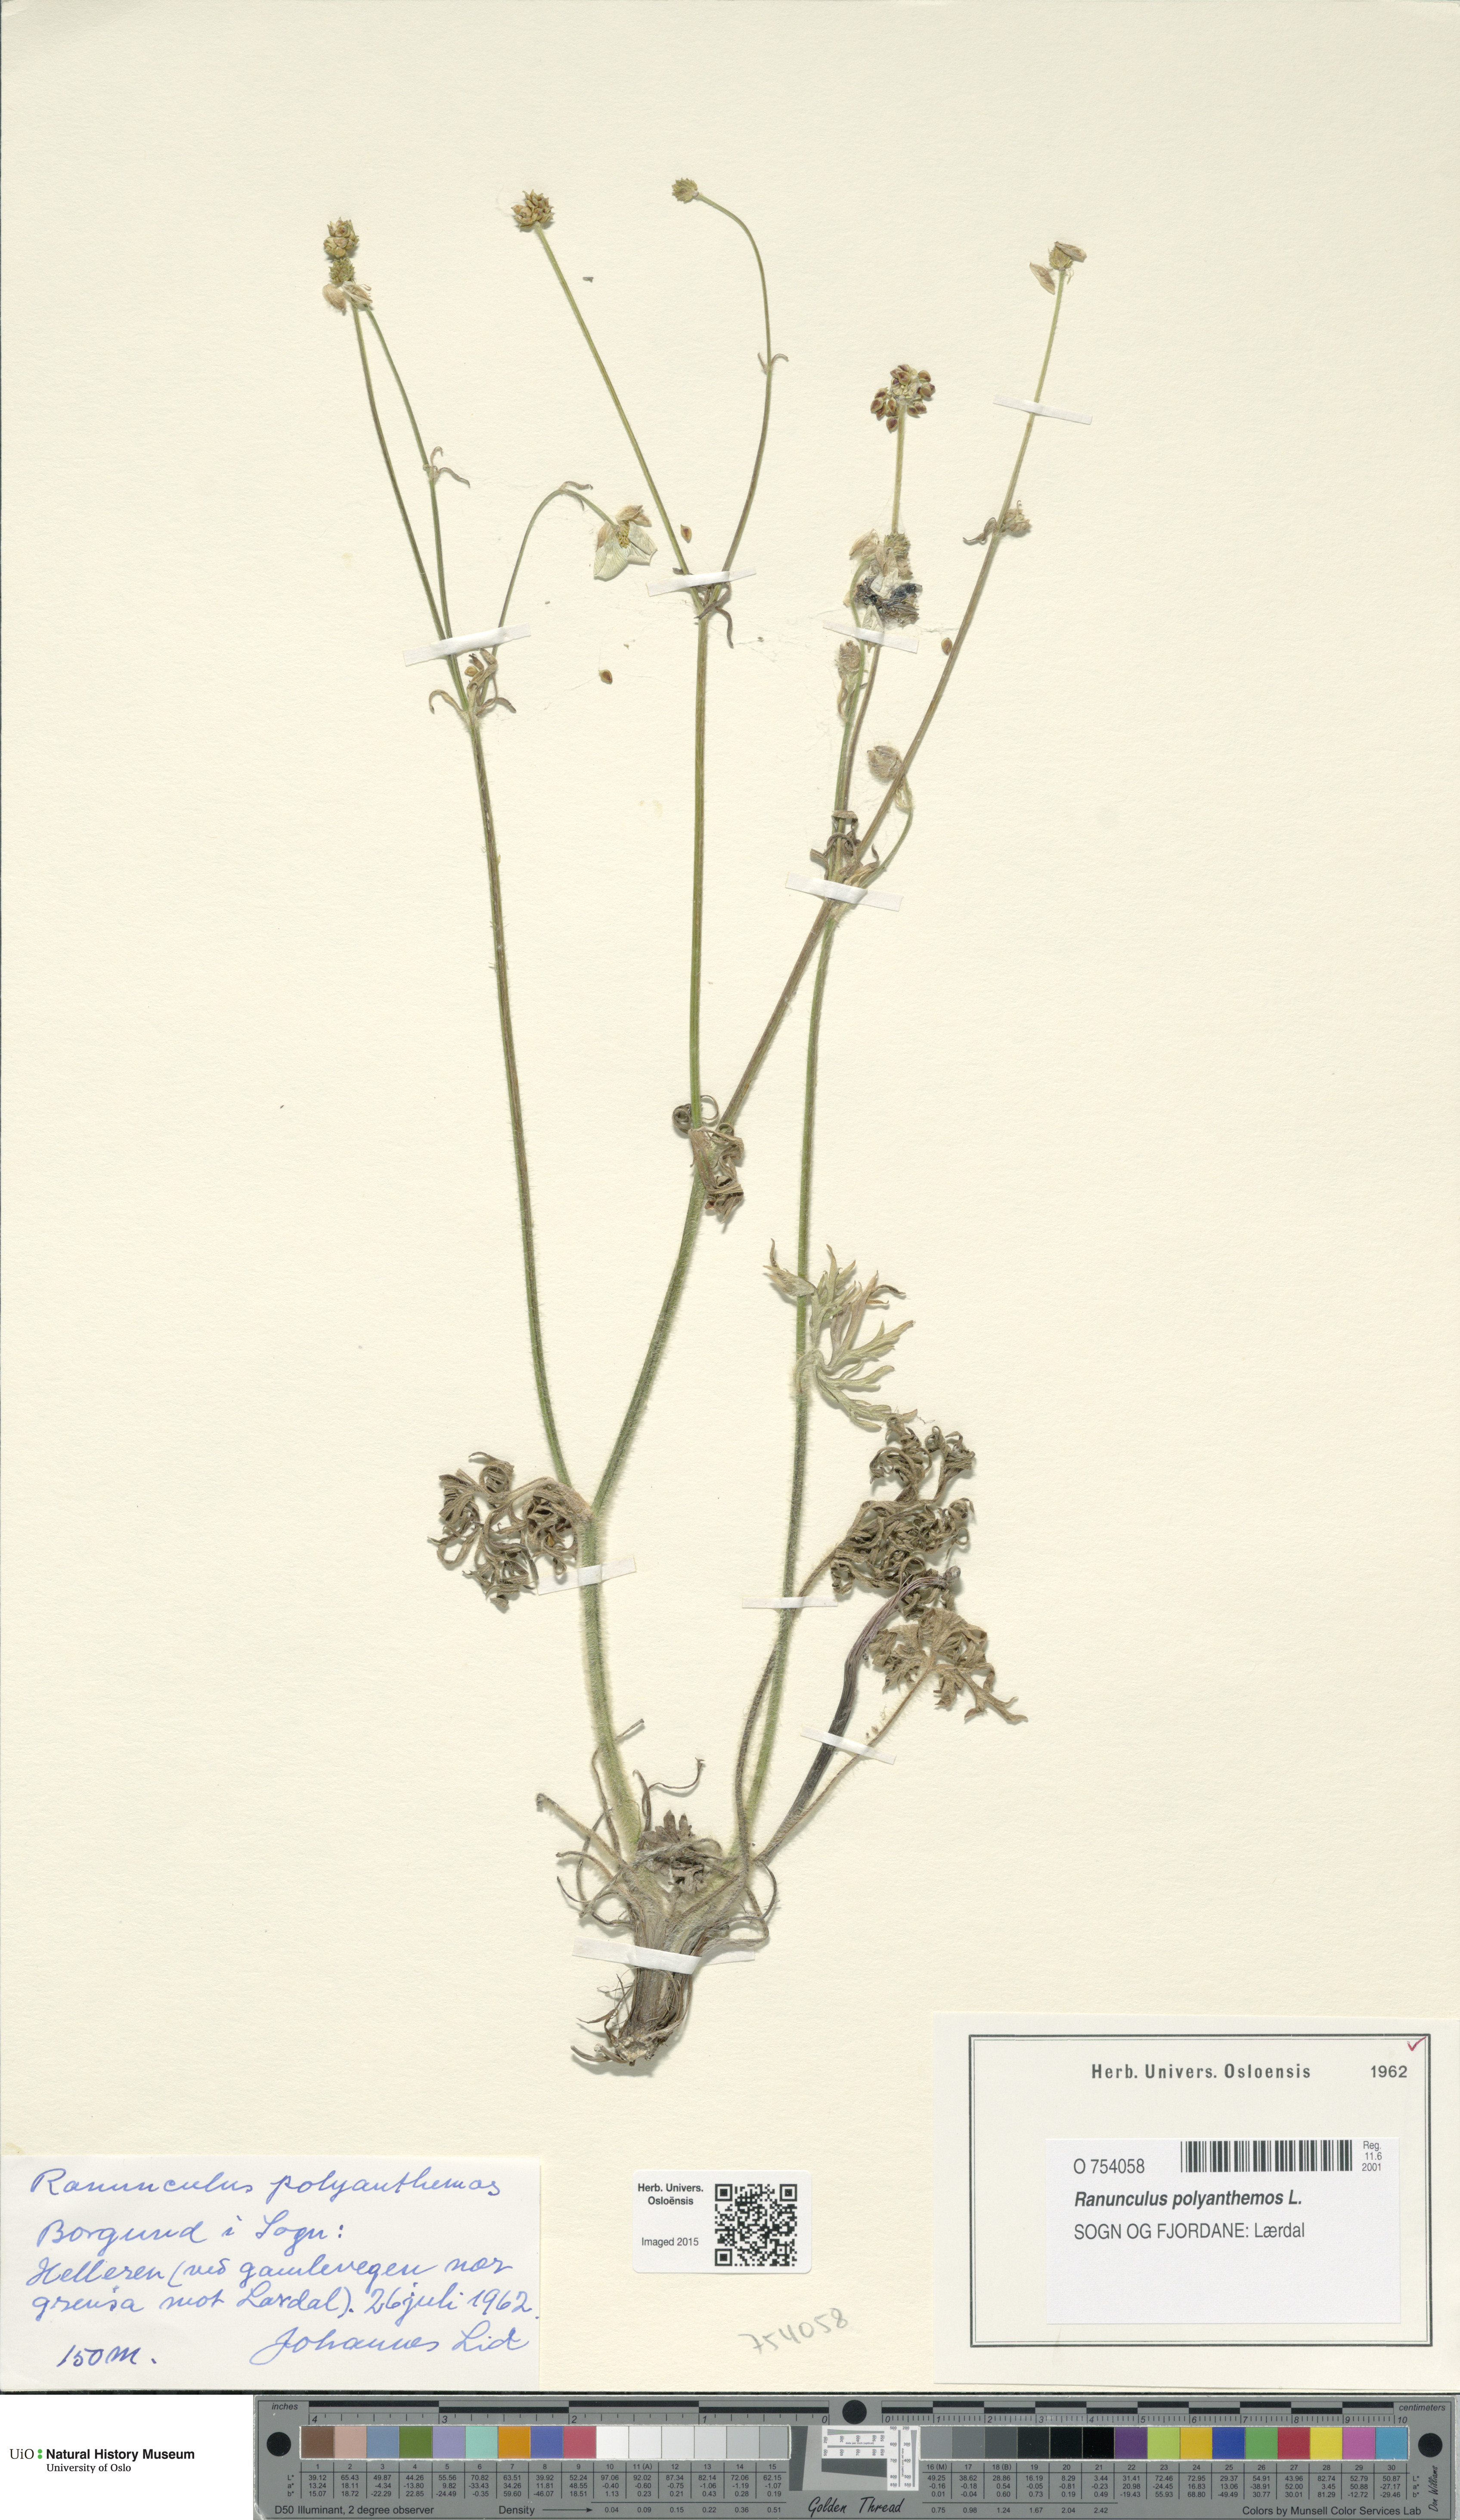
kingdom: Plantae
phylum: Tracheophyta
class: Magnoliopsida
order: Ranunculales
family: Ranunculaceae
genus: Ranunculus
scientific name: Ranunculus polyanthemos
